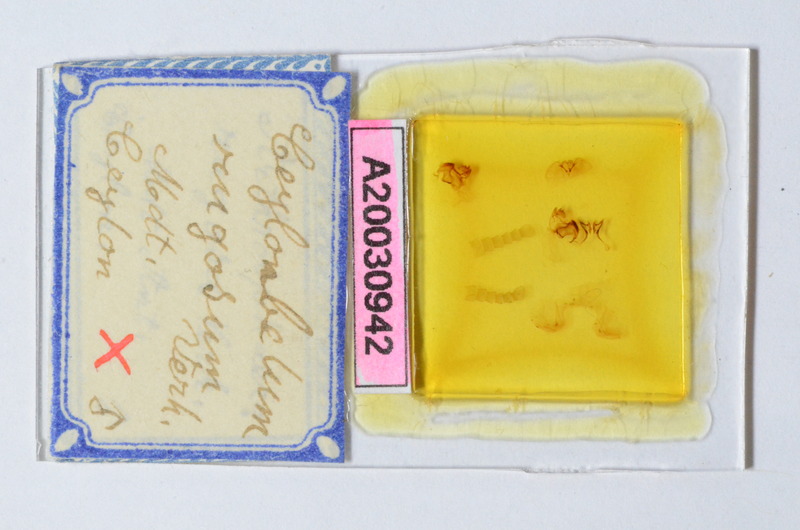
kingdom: Animalia
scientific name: Animalia
